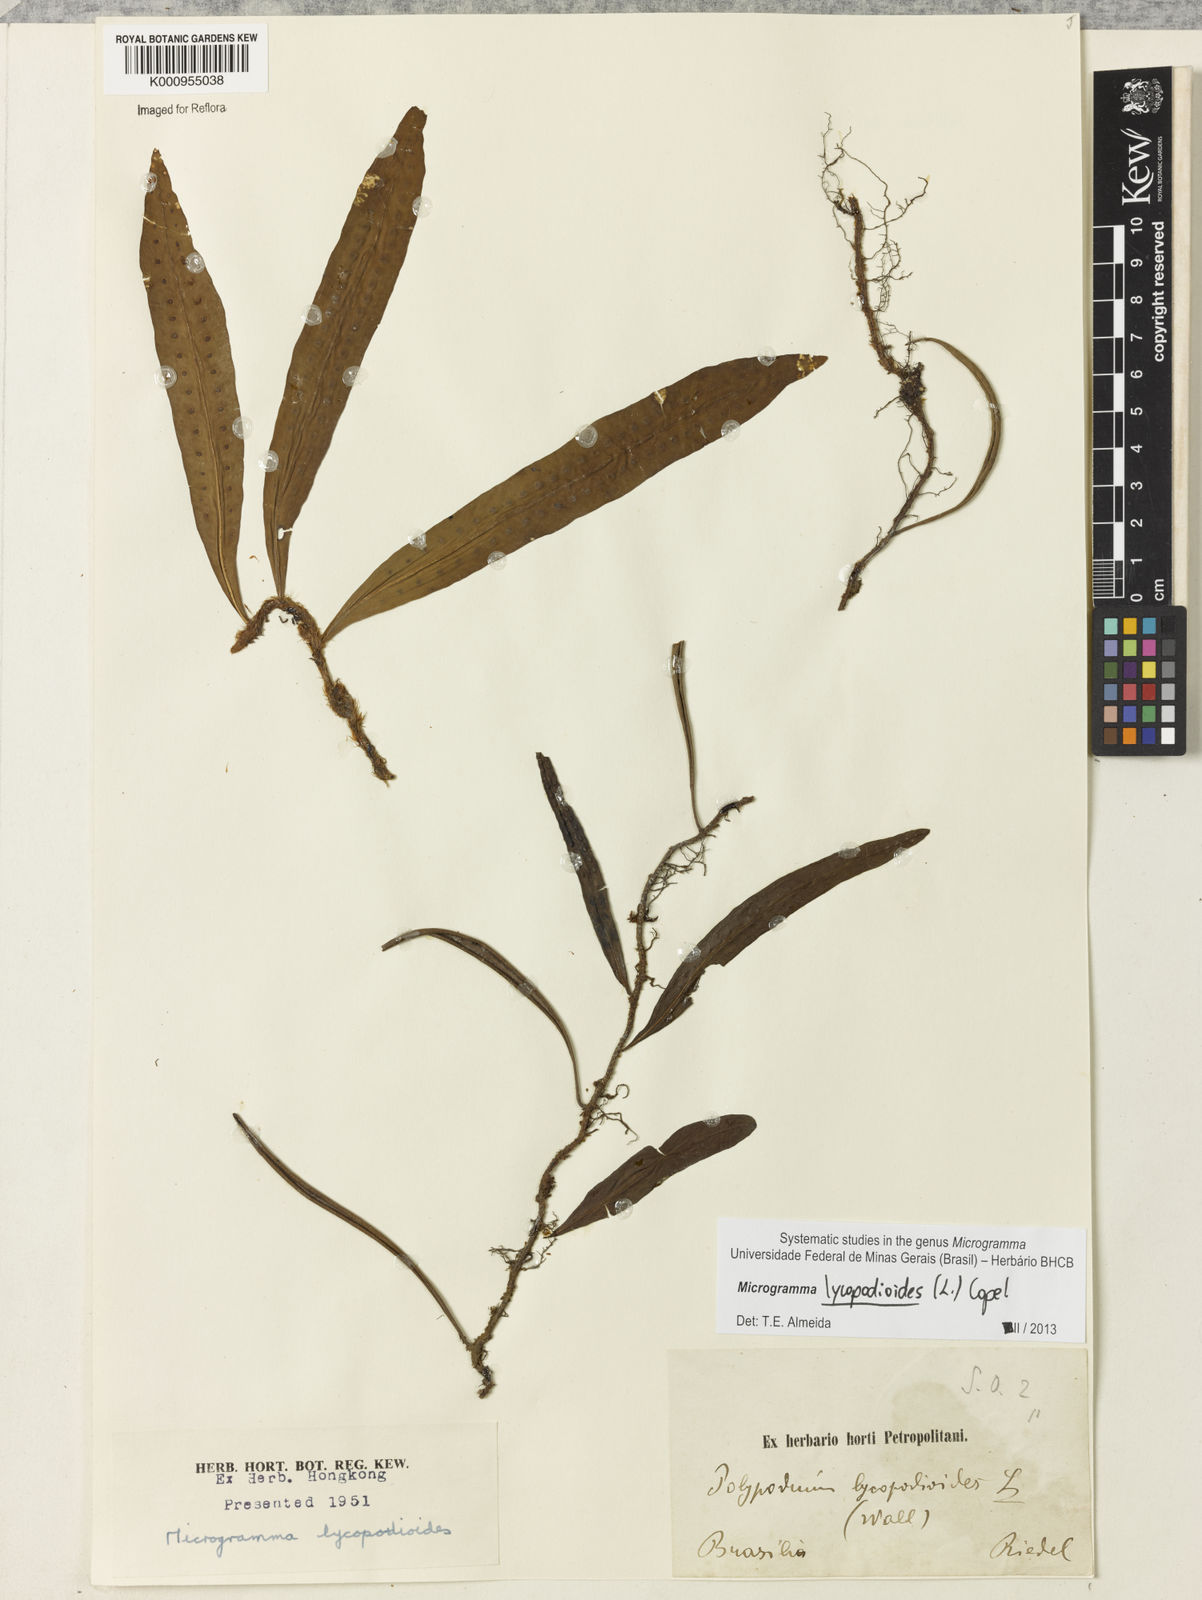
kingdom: Plantae
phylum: Tracheophyta
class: Polypodiopsida
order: Polypodiales
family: Polypodiaceae
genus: Microgramma
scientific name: Microgramma lycopodioides
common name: Bastard catclaw
